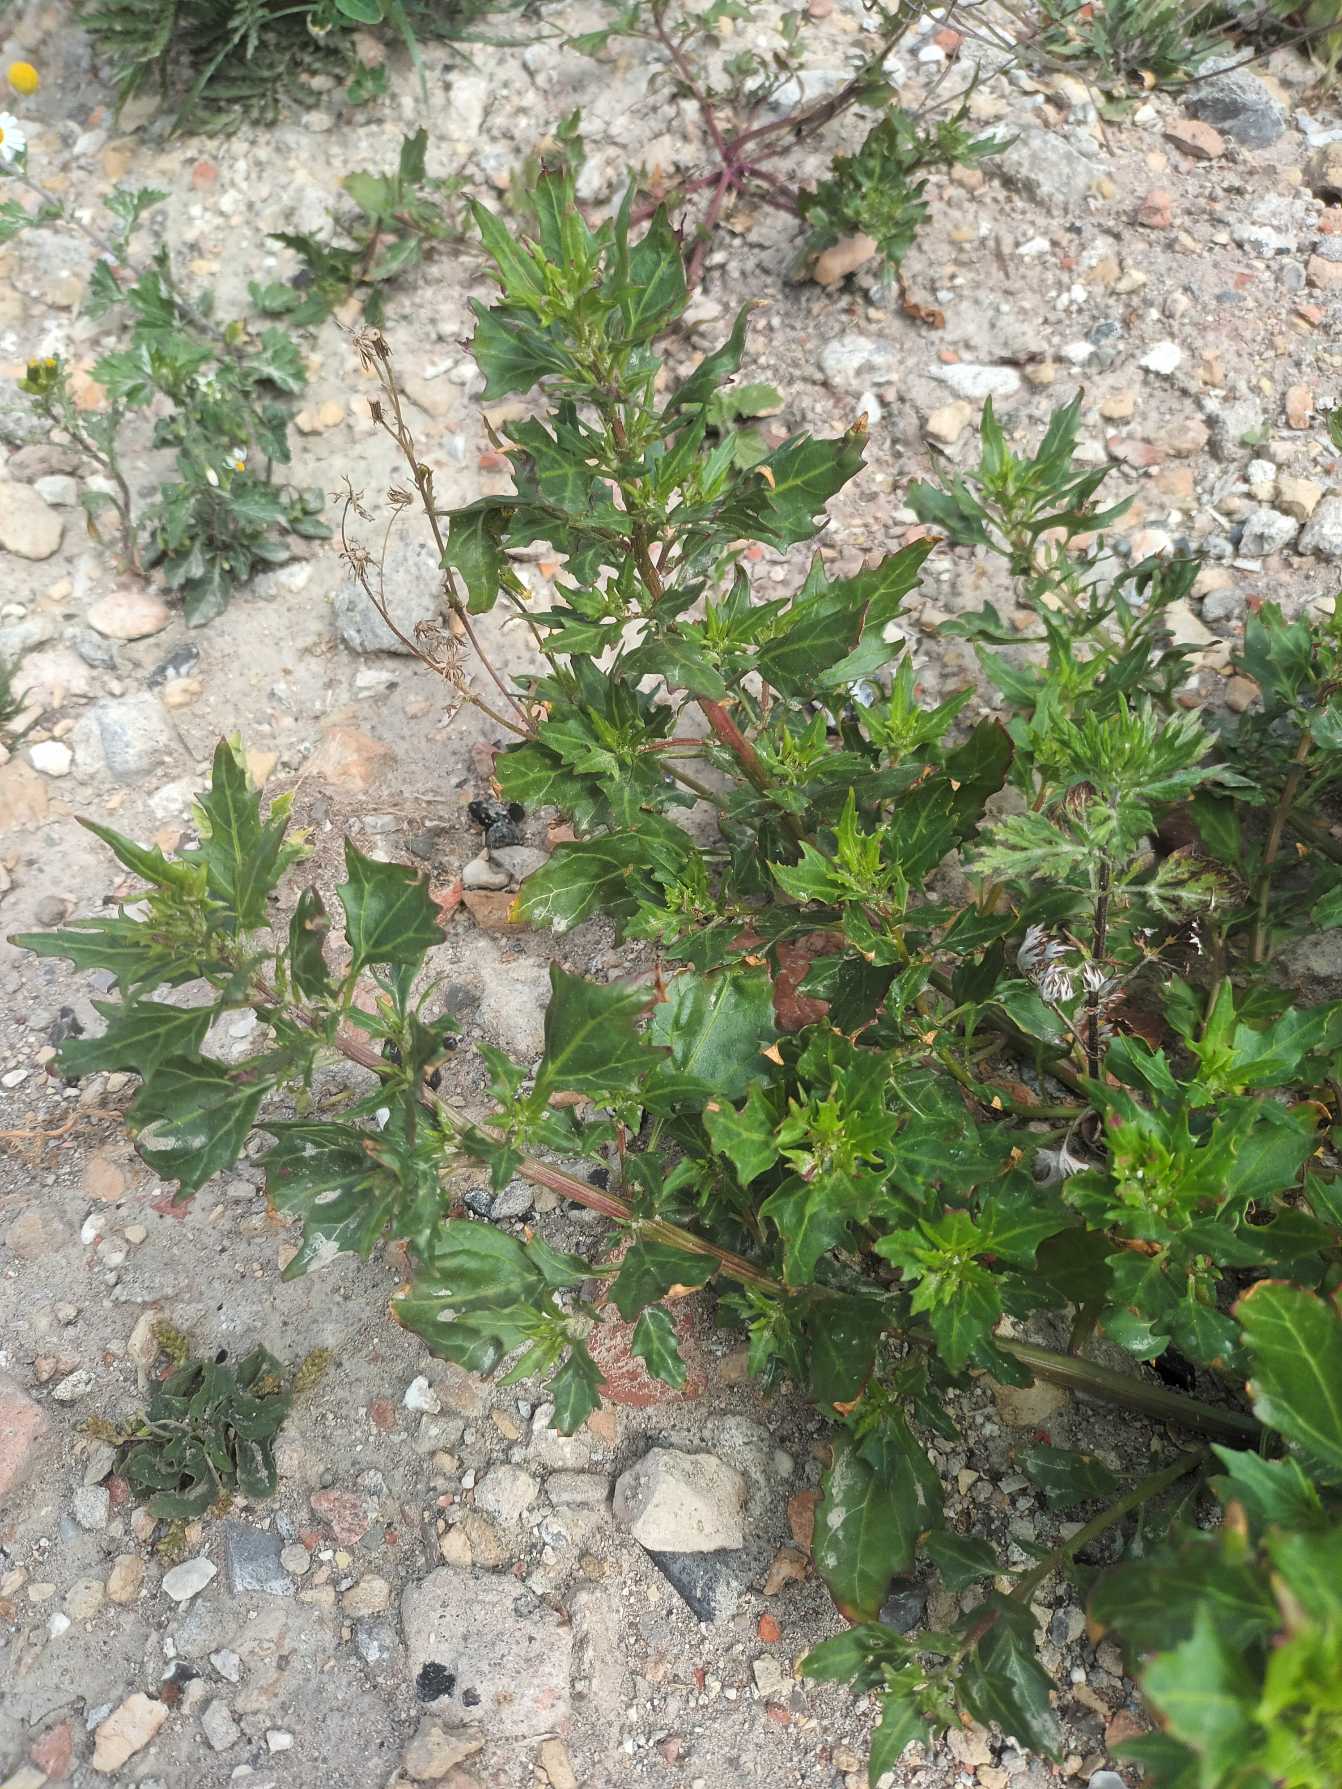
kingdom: Plantae
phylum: Tracheophyta
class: Magnoliopsida
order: Caryophyllales
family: Amaranthaceae
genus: Oxybasis
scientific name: Oxybasis rubra
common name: Rød gåsefod
